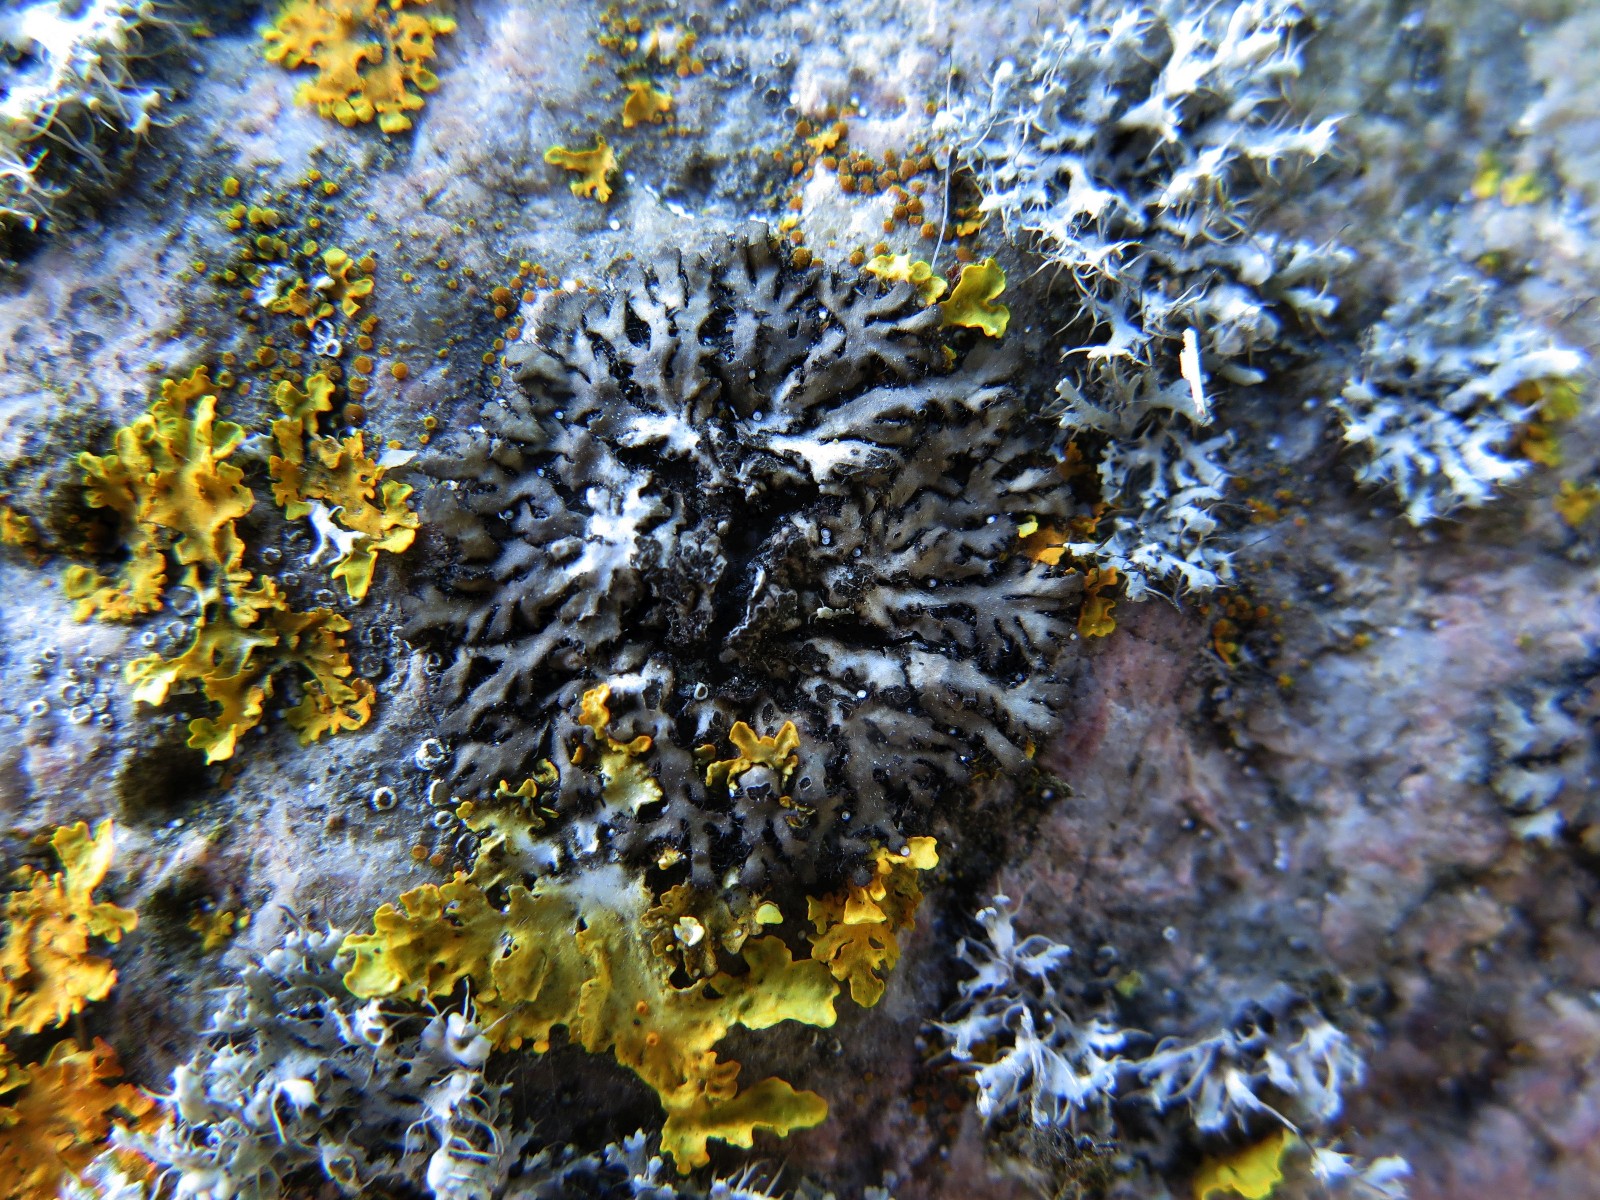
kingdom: Fungi
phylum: Ascomycota
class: Lecanoromycetes
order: Caliciales
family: Physciaceae
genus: Phaeophyscia
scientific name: Phaeophyscia orbicularis
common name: grågrøn rosetlav
